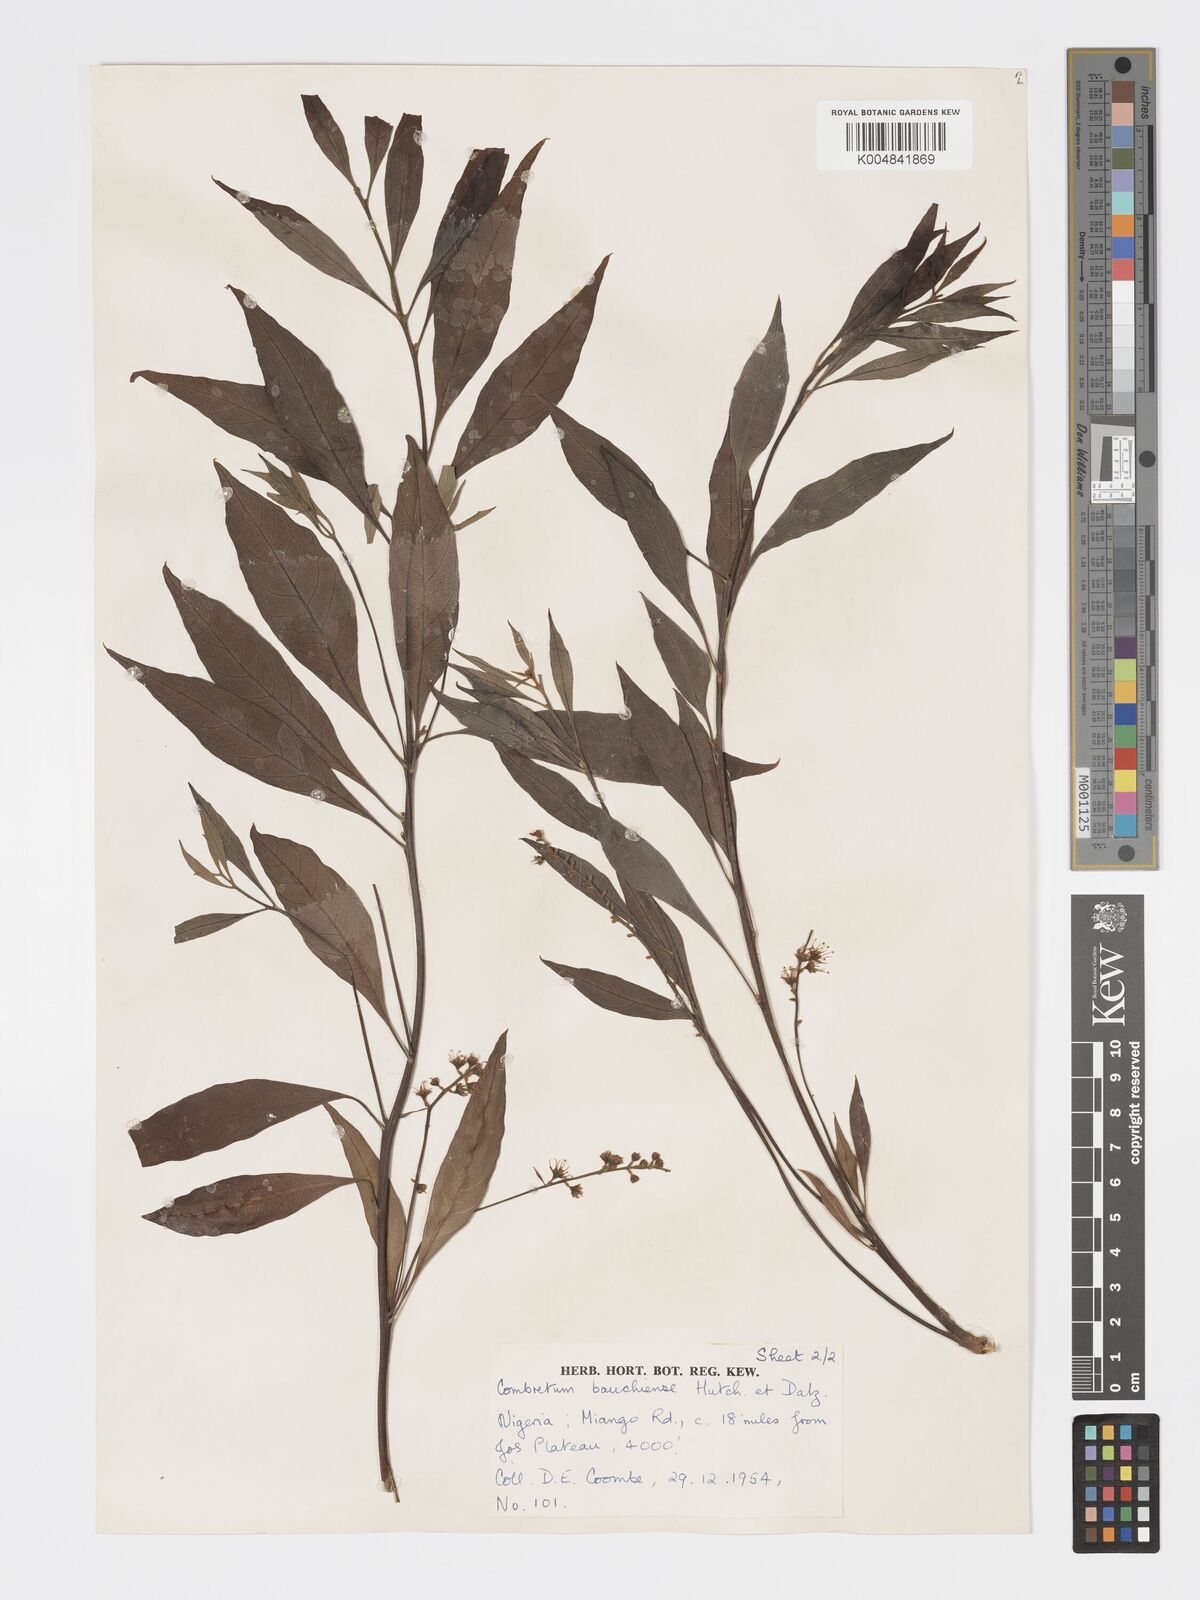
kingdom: Plantae
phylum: Tracheophyta
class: Magnoliopsida
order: Myrtales
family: Combretaceae
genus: Combretum
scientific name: Combretum bauchiense
